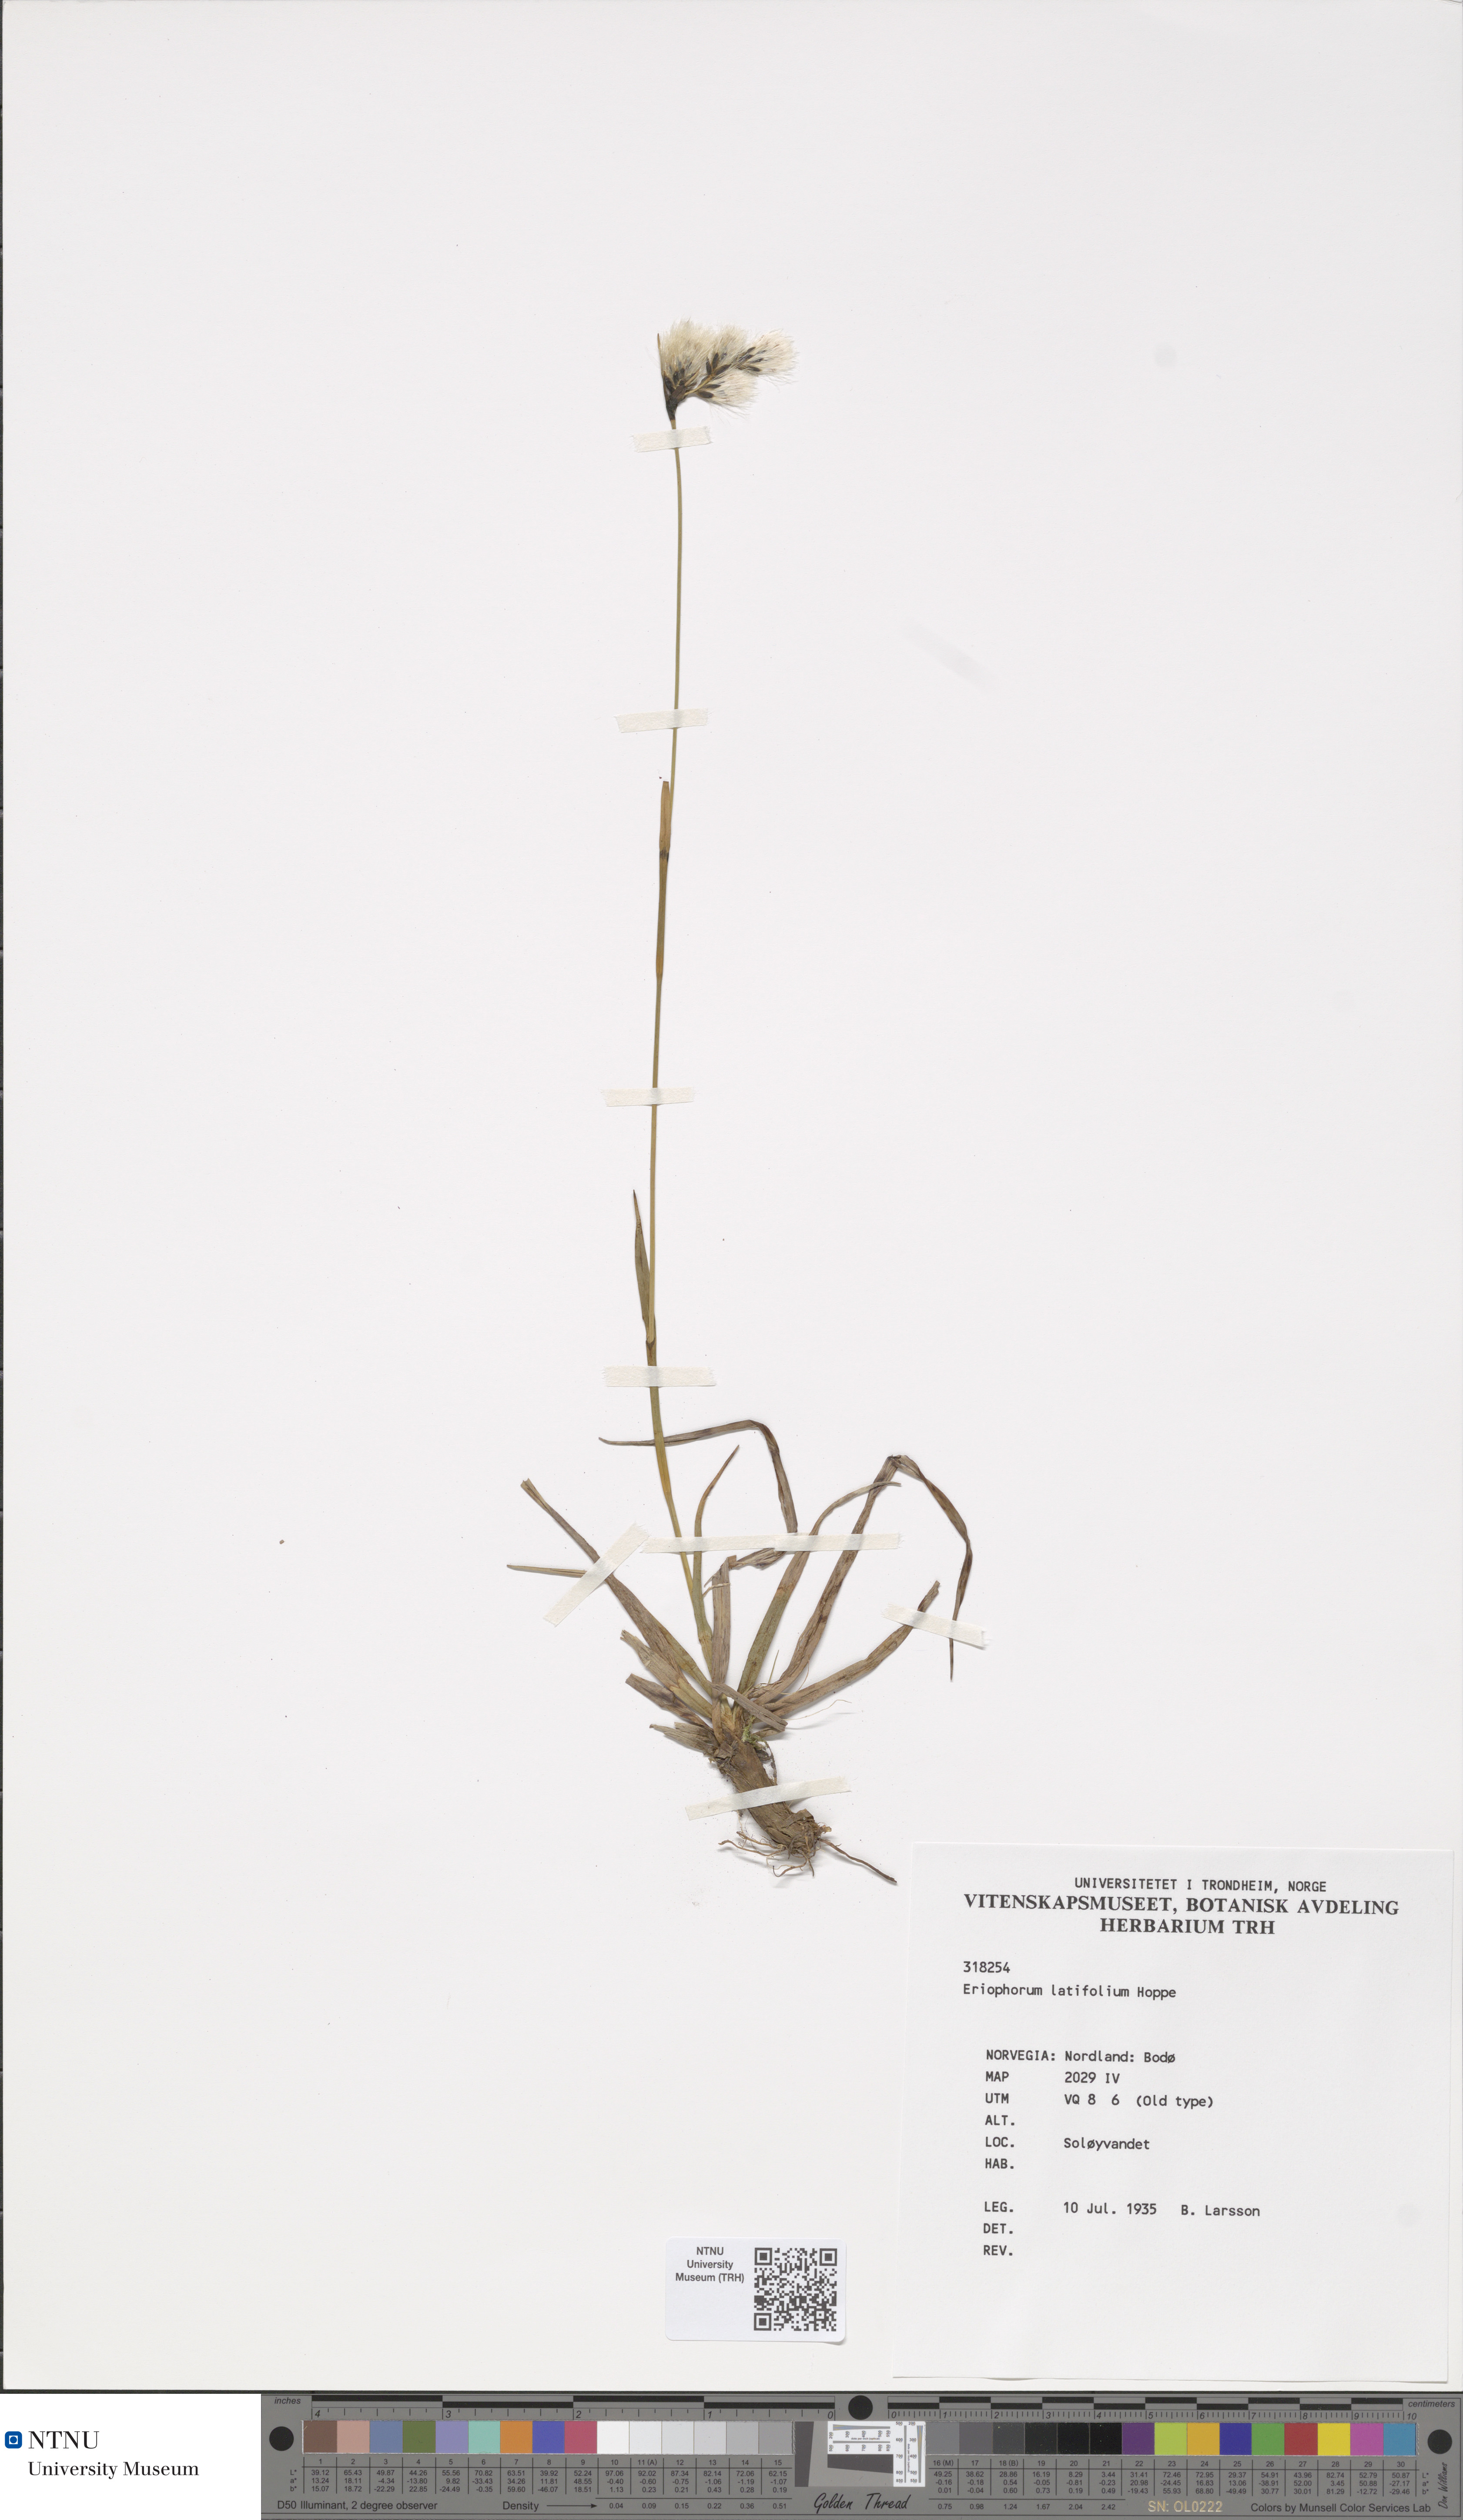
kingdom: Plantae
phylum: Tracheophyta
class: Liliopsida
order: Poales
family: Cyperaceae
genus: Eriophorum
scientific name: Eriophorum latifolium
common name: Broad-leaved cottongrass
